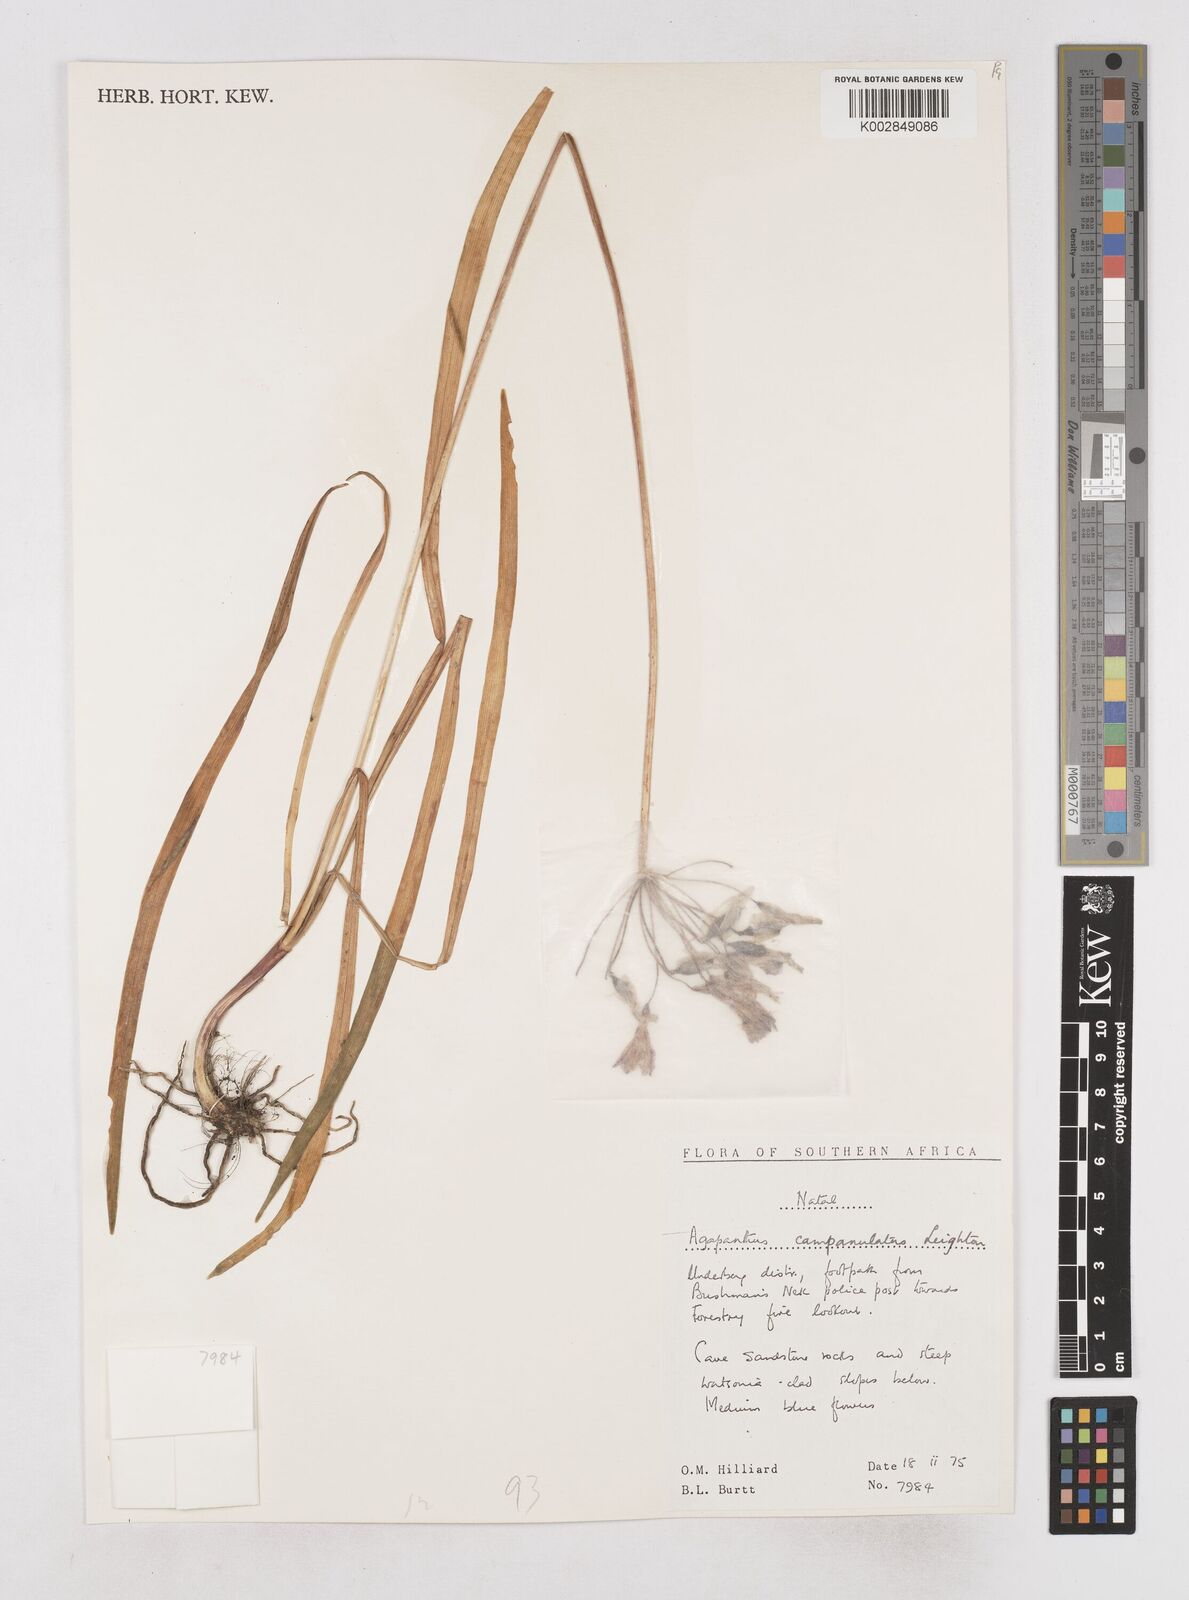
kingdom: Plantae
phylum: Tracheophyta
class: Liliopsida
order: Asparagales
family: Amaryllidaceae
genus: Agapanthus
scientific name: Agapanthus campanulatus
